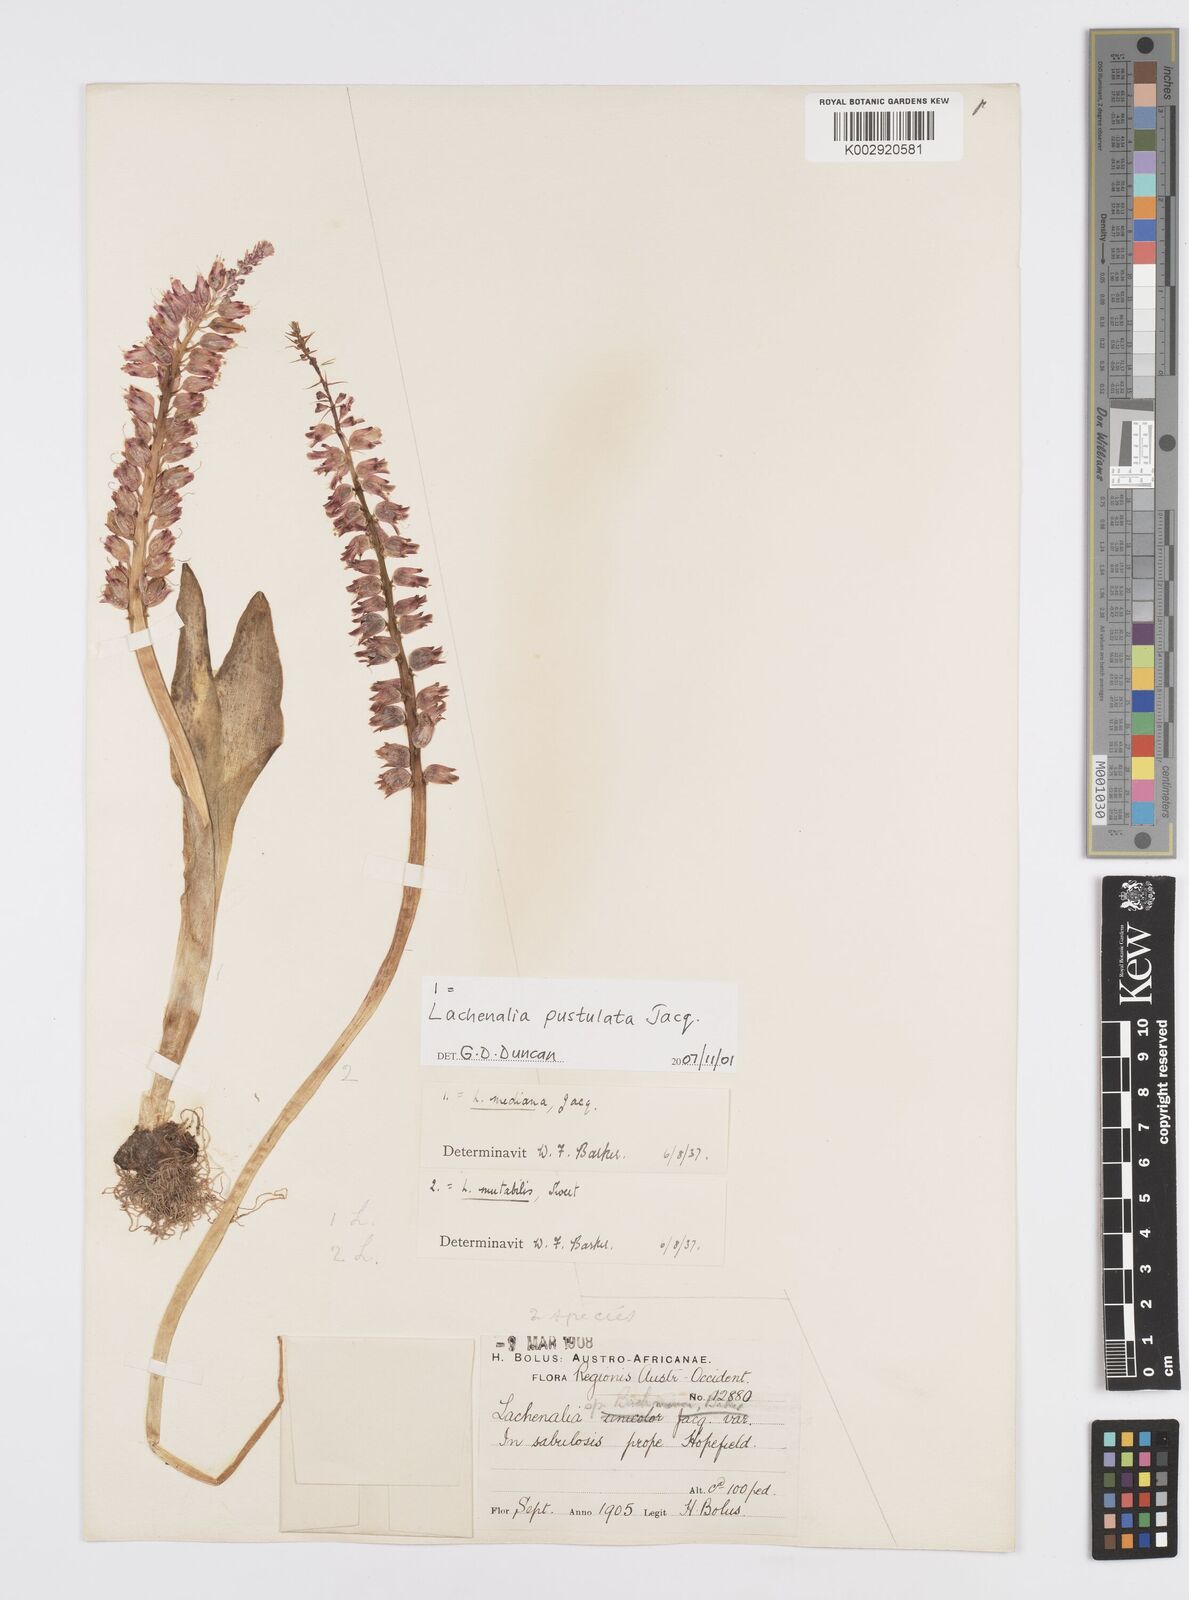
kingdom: Plantae
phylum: Tracheophyta
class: Liliopsida
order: Asparagales
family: Asparagaceae
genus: Lachenalia
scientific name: Lachenalia pallida
